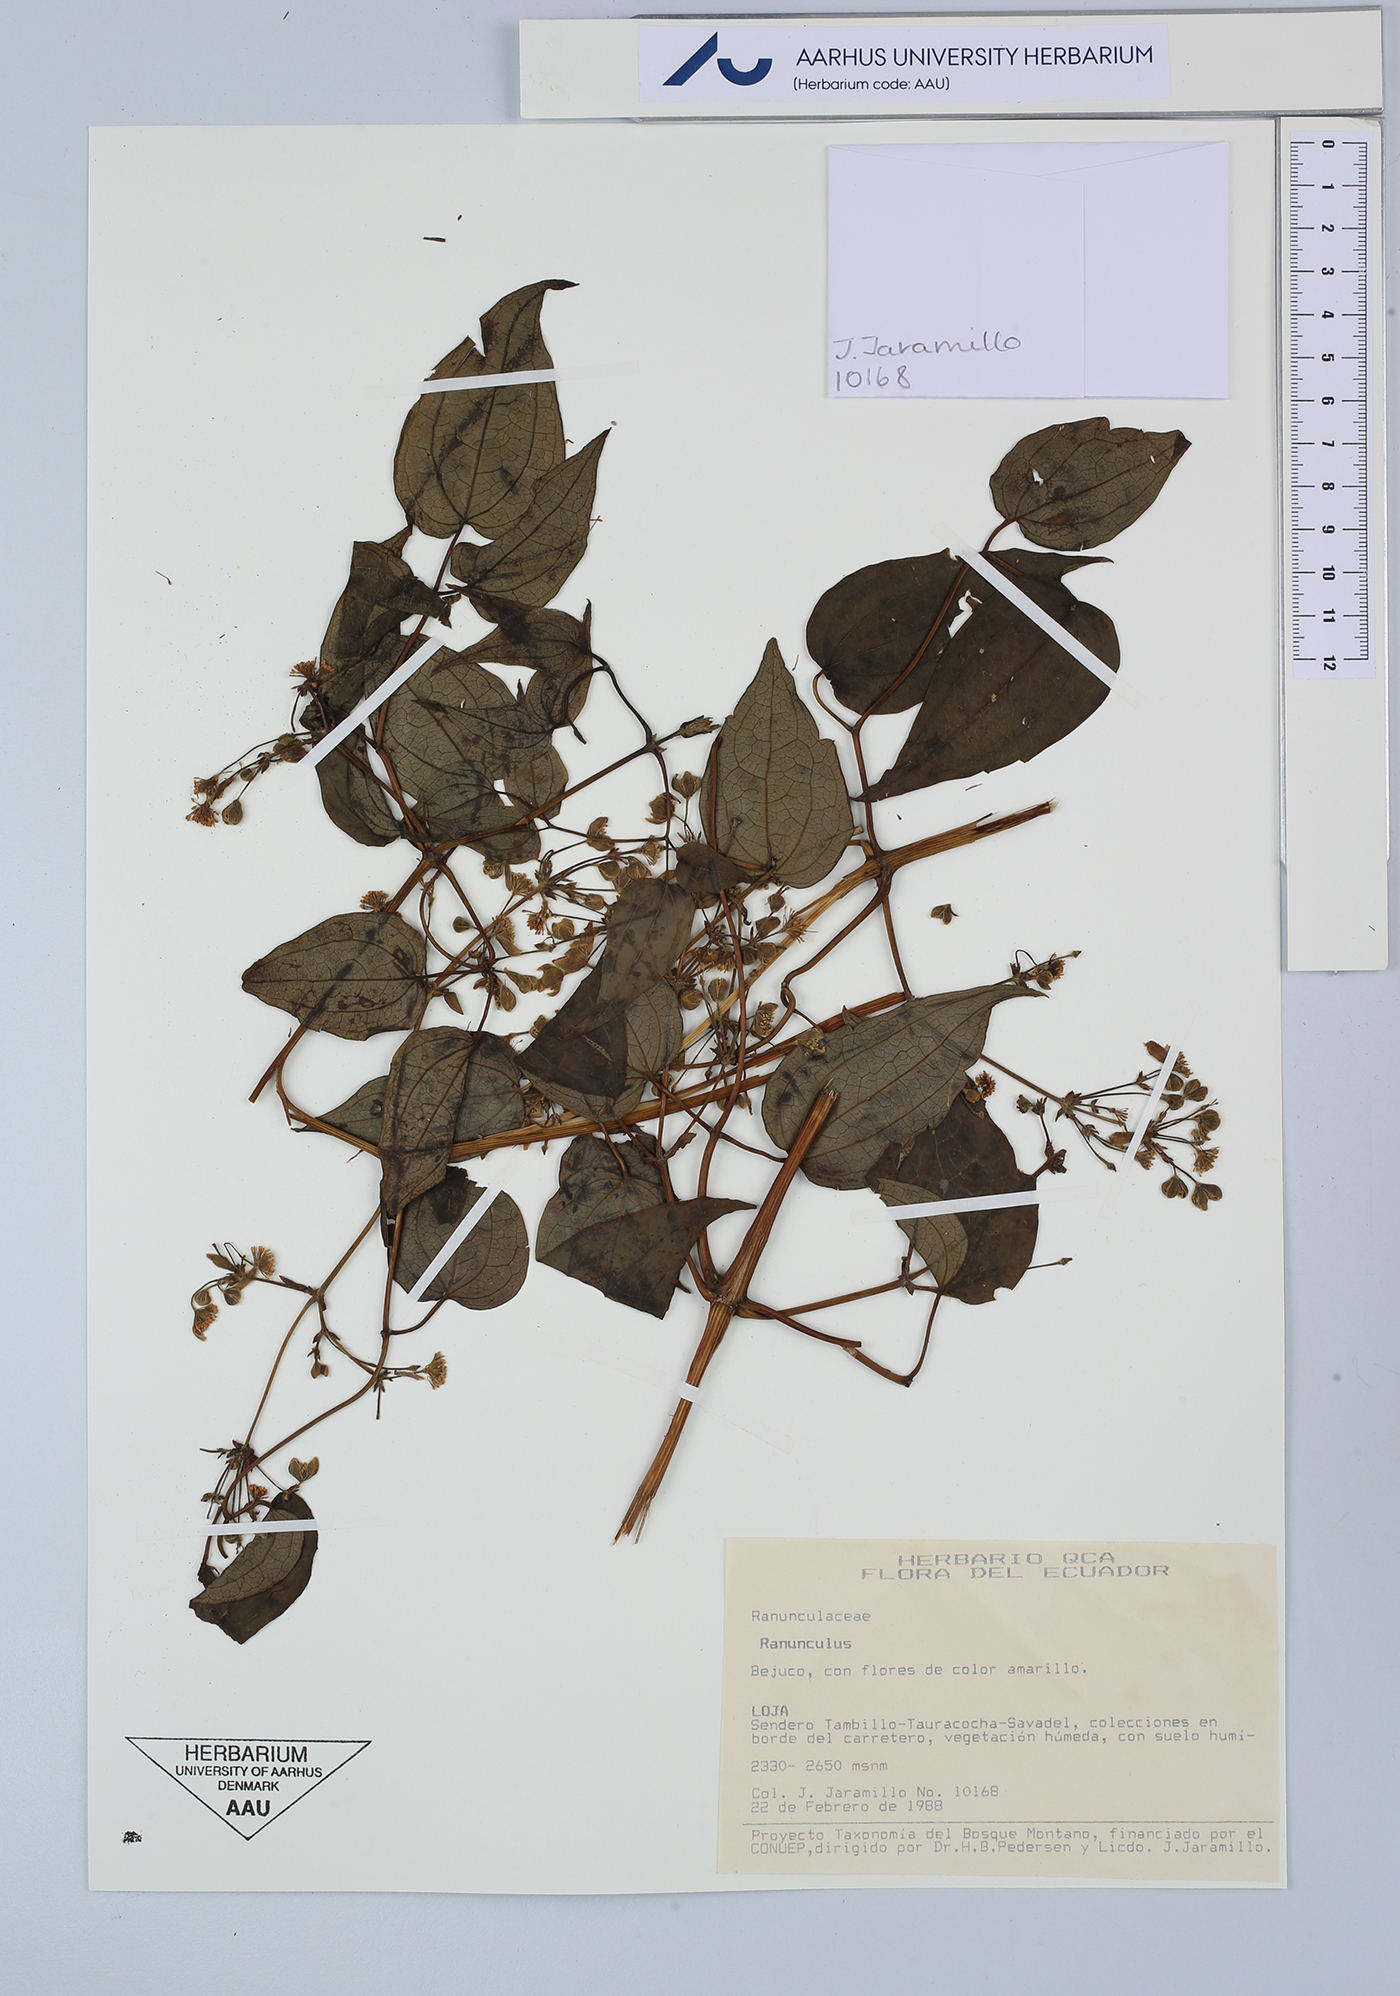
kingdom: Plantae
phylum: Tracheophyta
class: Magnoliopsida
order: Ranunculales
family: Ranunculaceae
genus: Ranunculus
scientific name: Ranunculus
